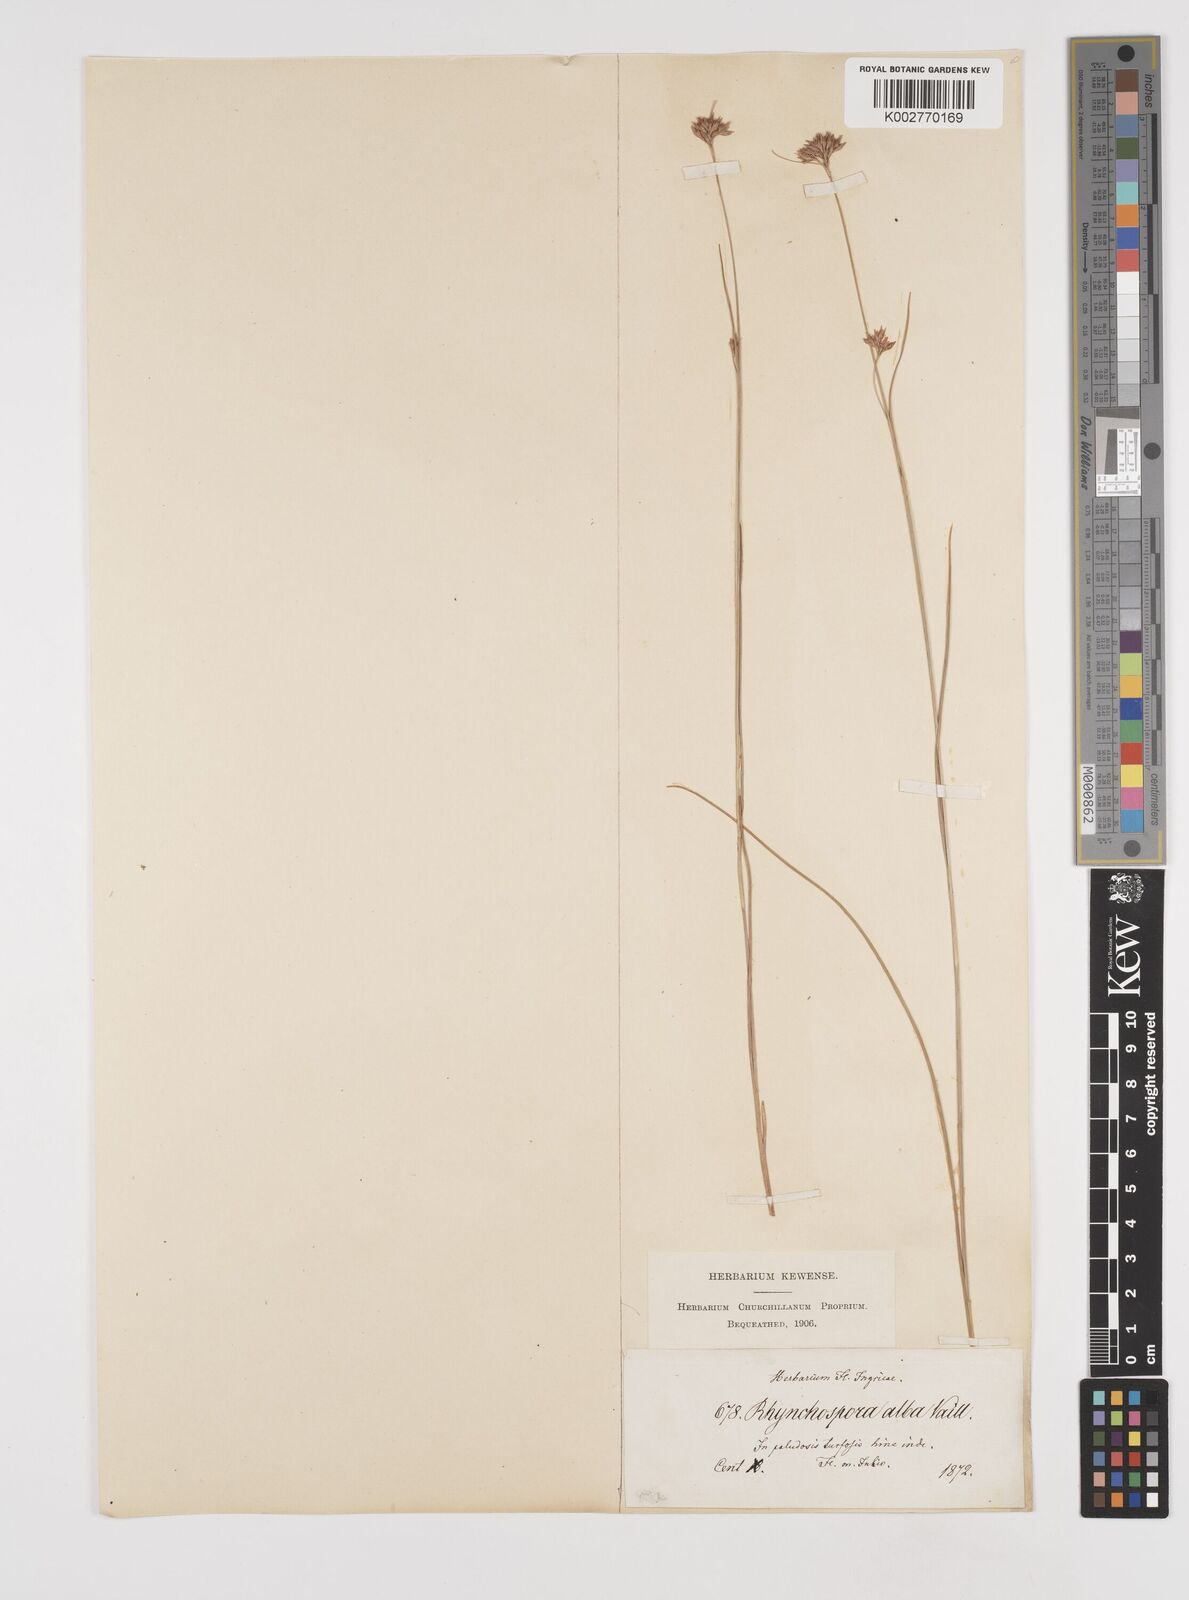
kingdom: Plantae
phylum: Tracheophyta
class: Liliopsida
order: Poales
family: Cyperaceae
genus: Rhynchospora
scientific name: Rhynchospora alba
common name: White beak-sedge
